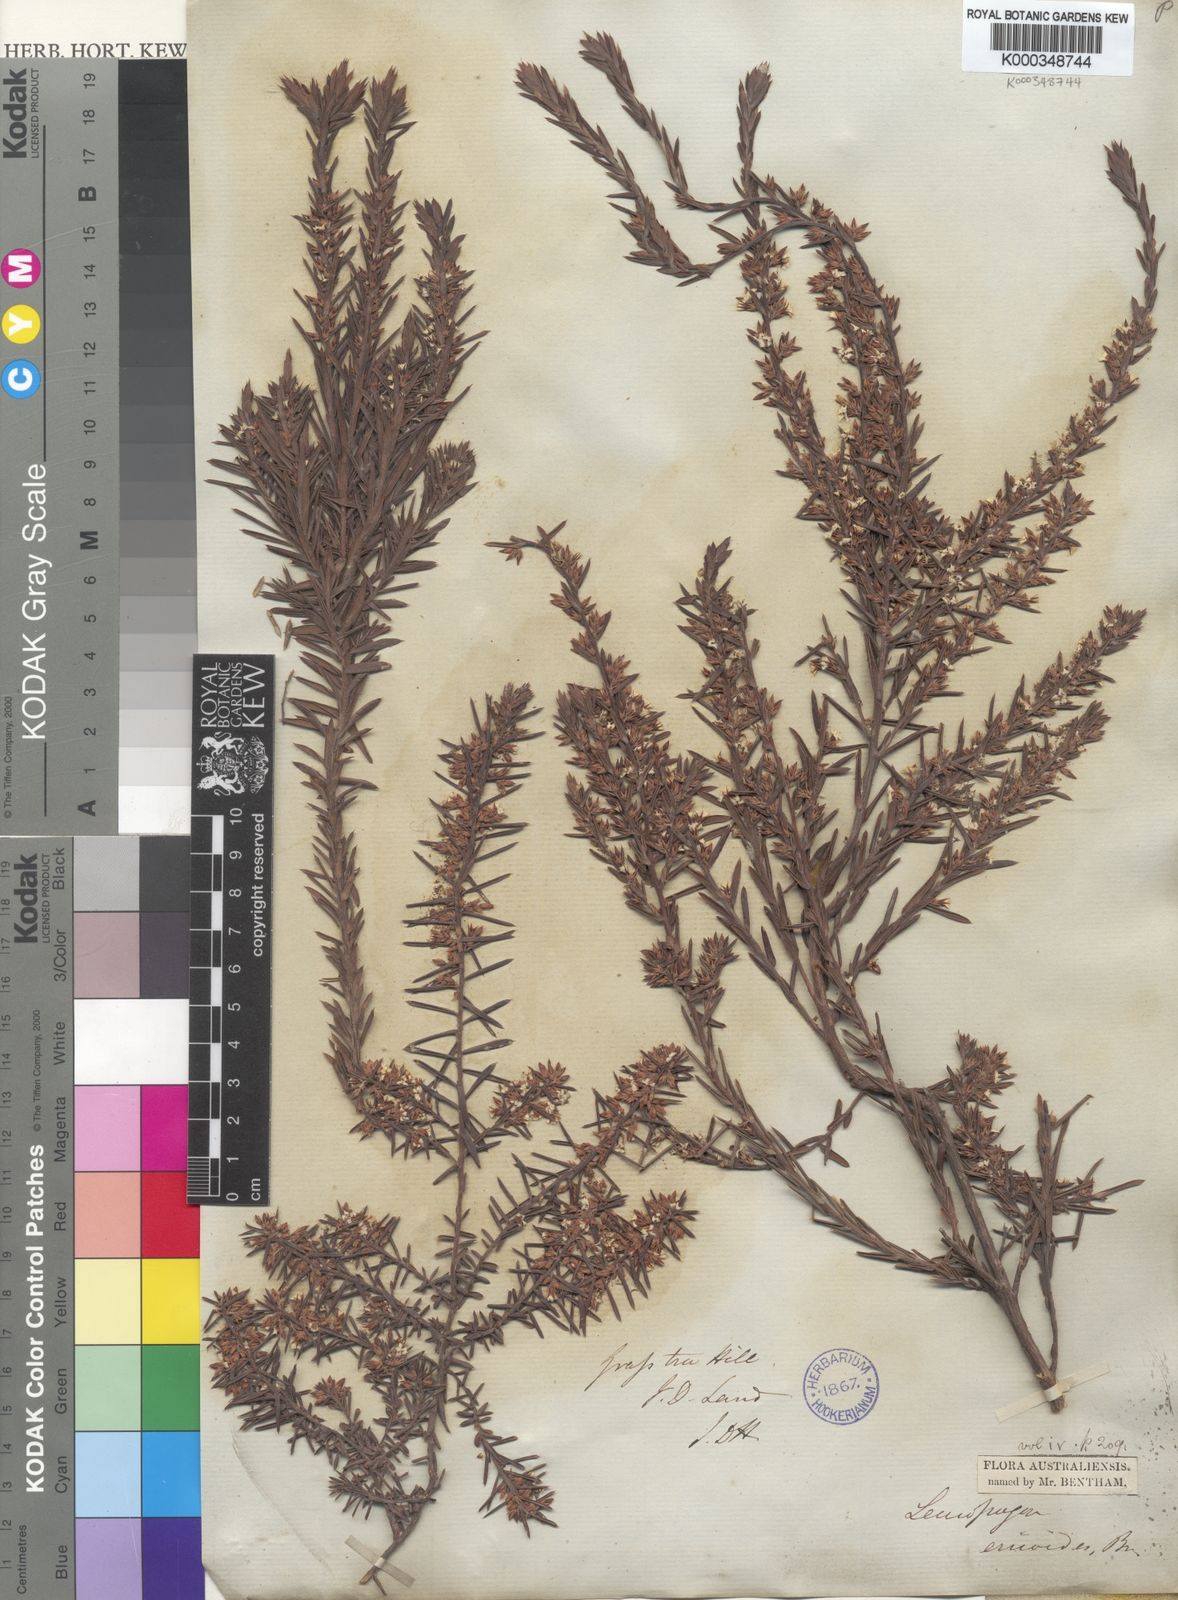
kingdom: Plantae
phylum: Tracheophyta
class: Magnoliopsida
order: Ericales
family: Ericaceae
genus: Styphelia
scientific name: Styphelia ericoides
